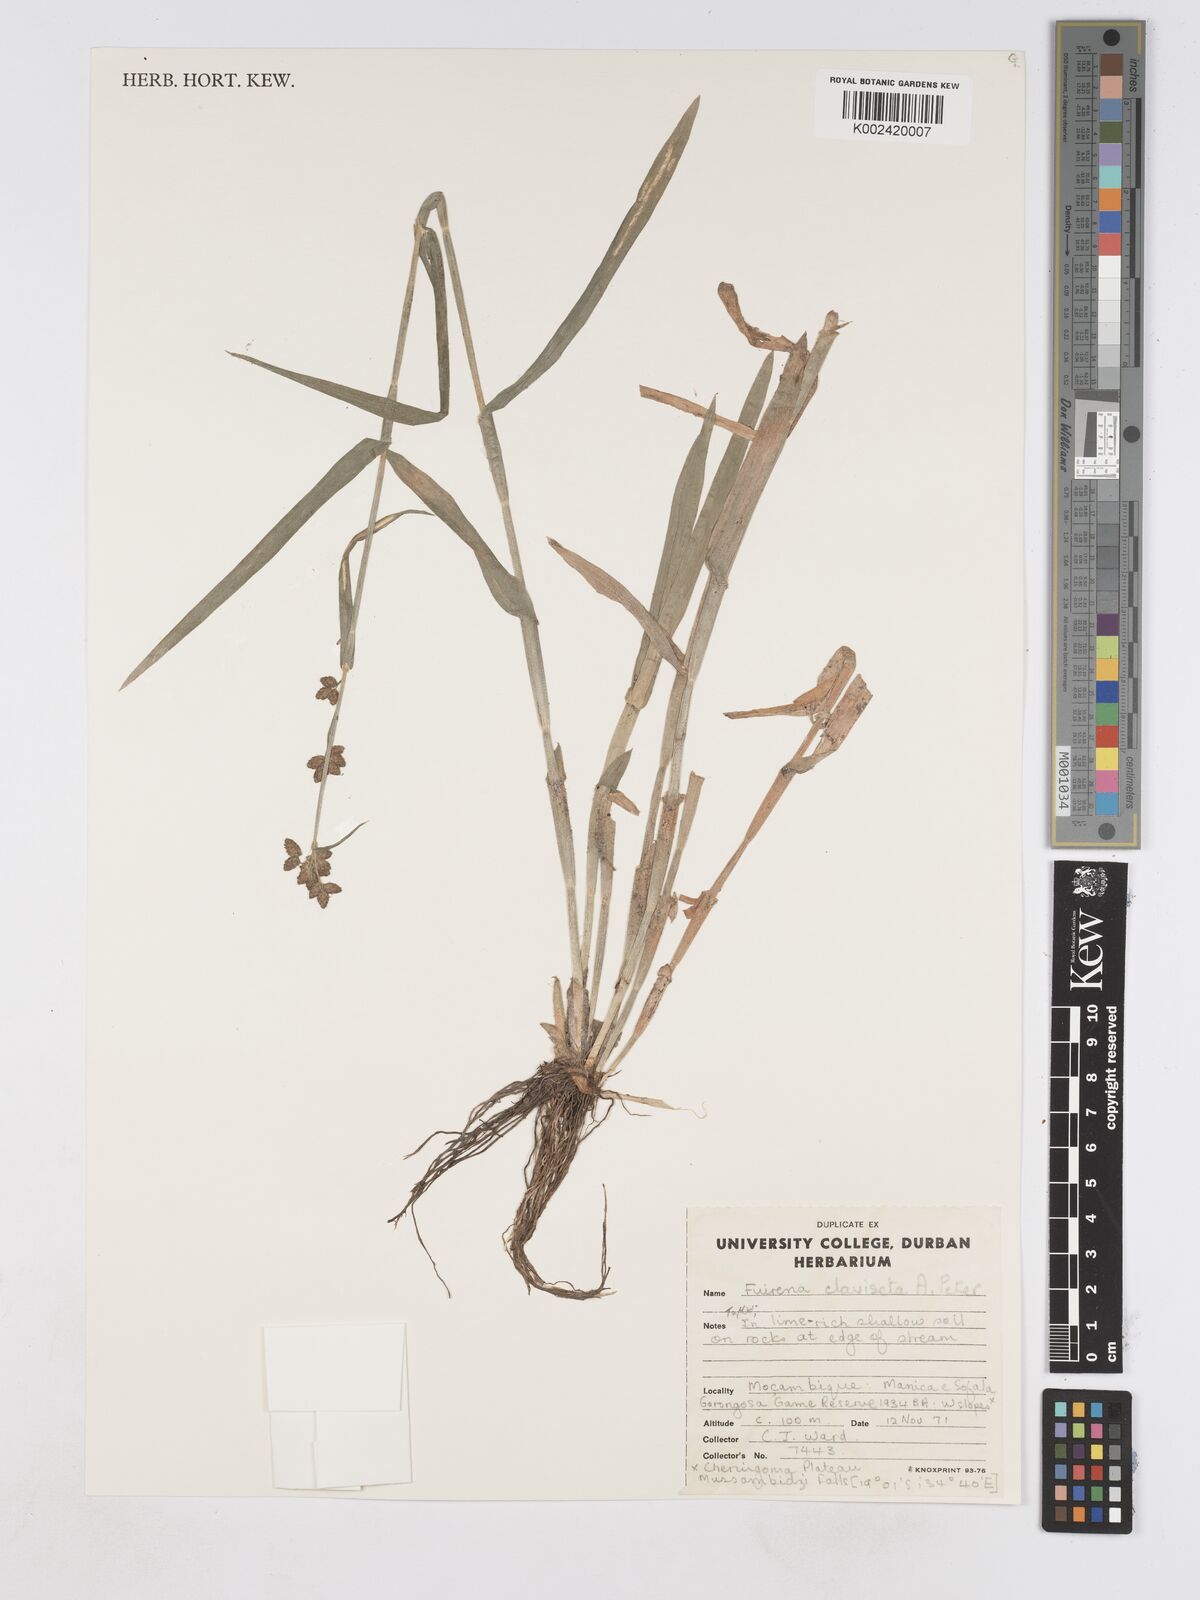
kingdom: Plantae
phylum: Tracheophyta
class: Liliopsida
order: Poales
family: Cyperaceae
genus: Fuirena
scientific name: Fuirena claviseta
